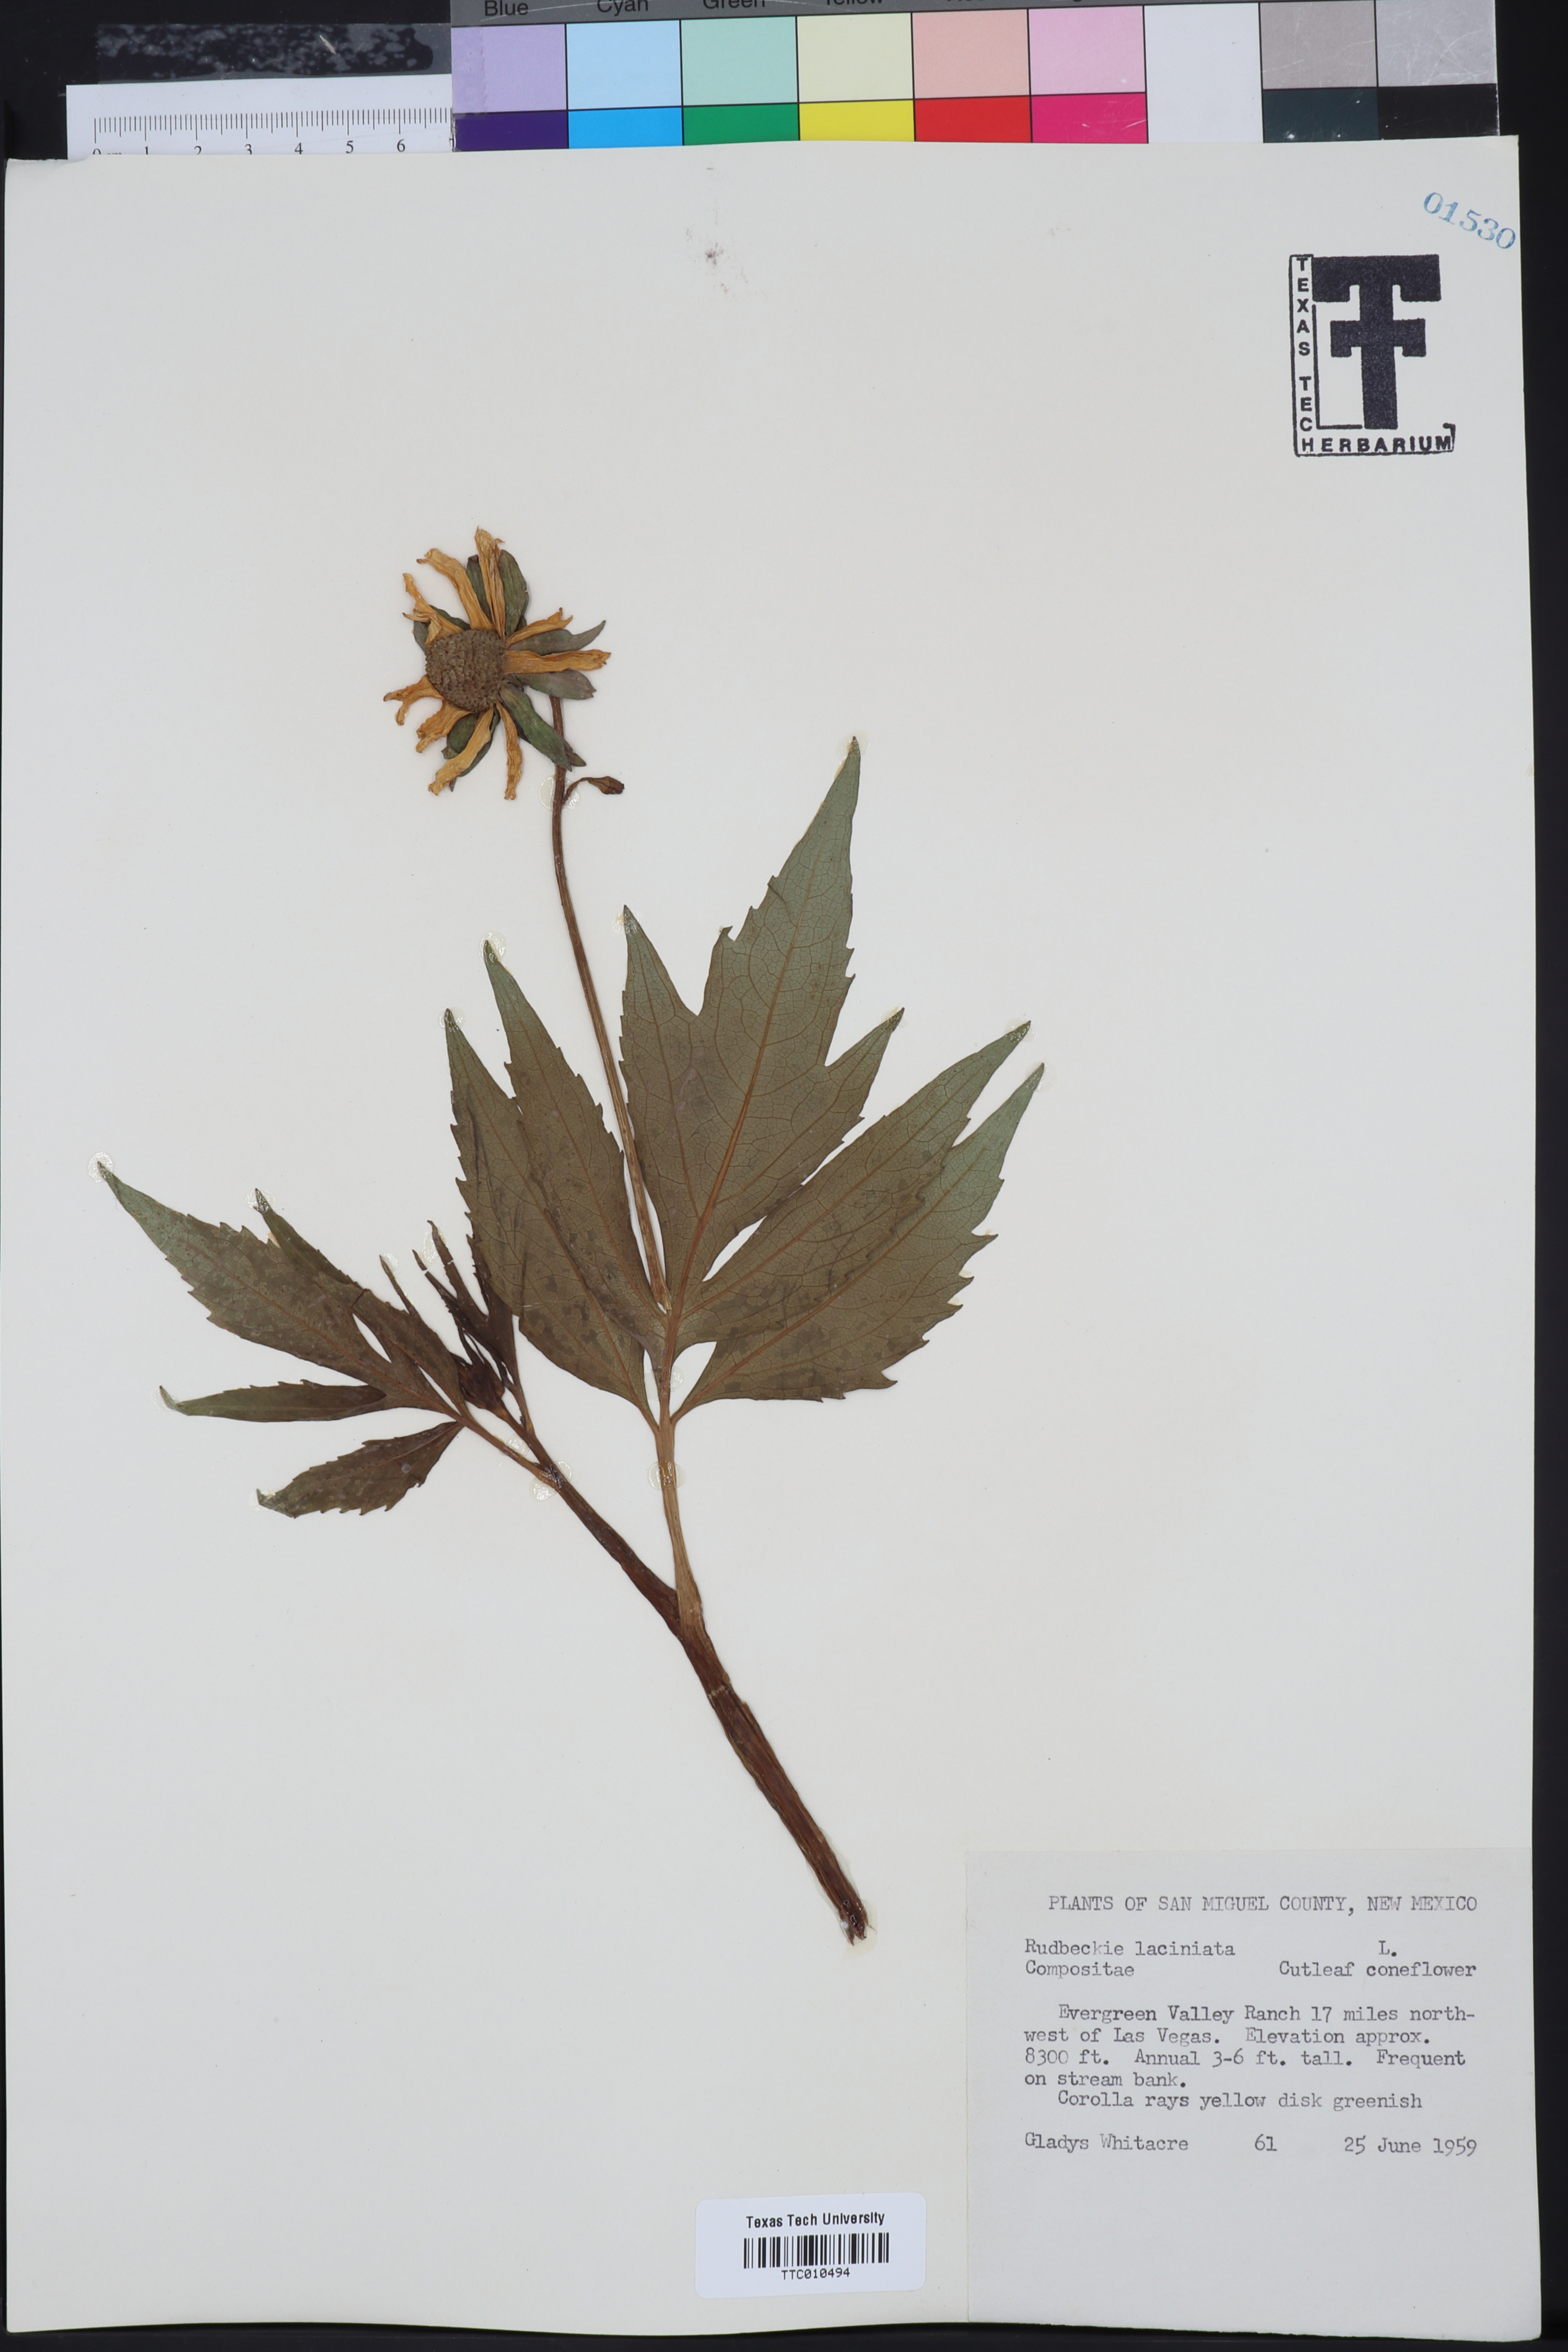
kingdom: Plantae
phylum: Tracheophyta
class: Magnoliopsida
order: Asterales
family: Asteraceae
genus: Rudbeckia
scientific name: Rudbeckia laciniata
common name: Coneflower
